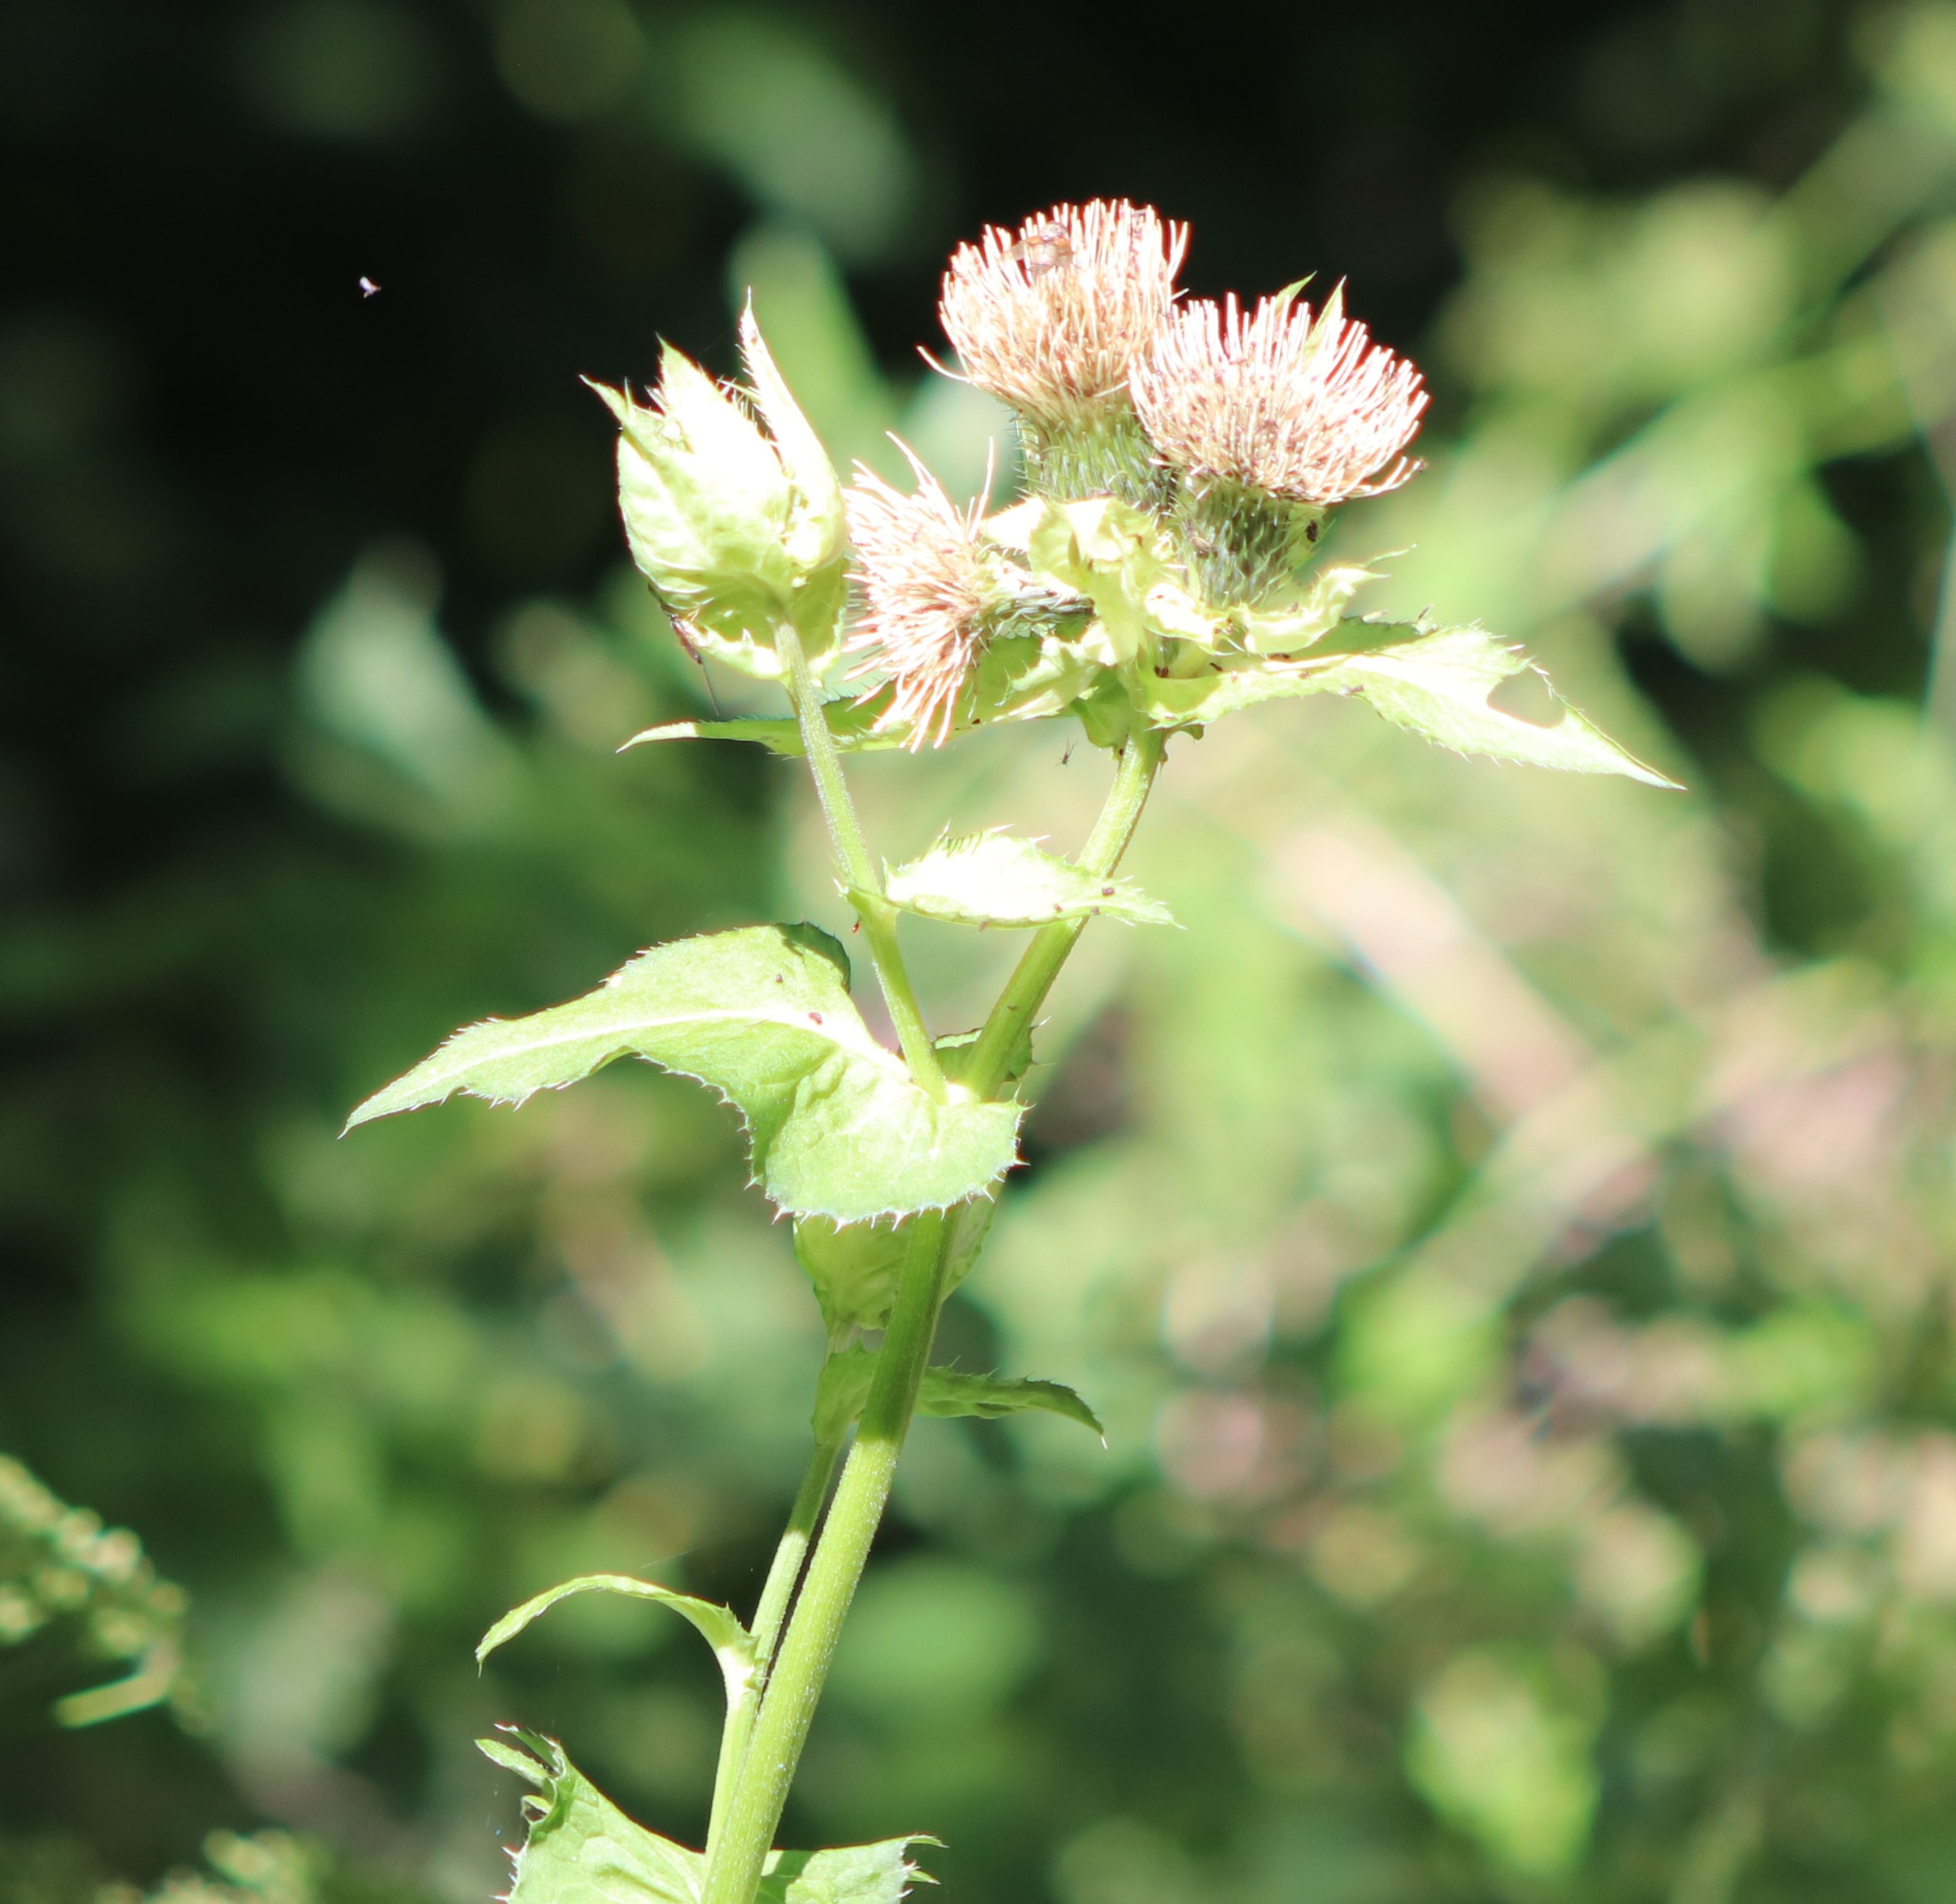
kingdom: Plantae
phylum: Tracheophyta
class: Magnoliopsida
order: Asterales
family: Asteraceae
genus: Cirsium
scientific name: Cirsium oleraceum
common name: Kål-tidsel
